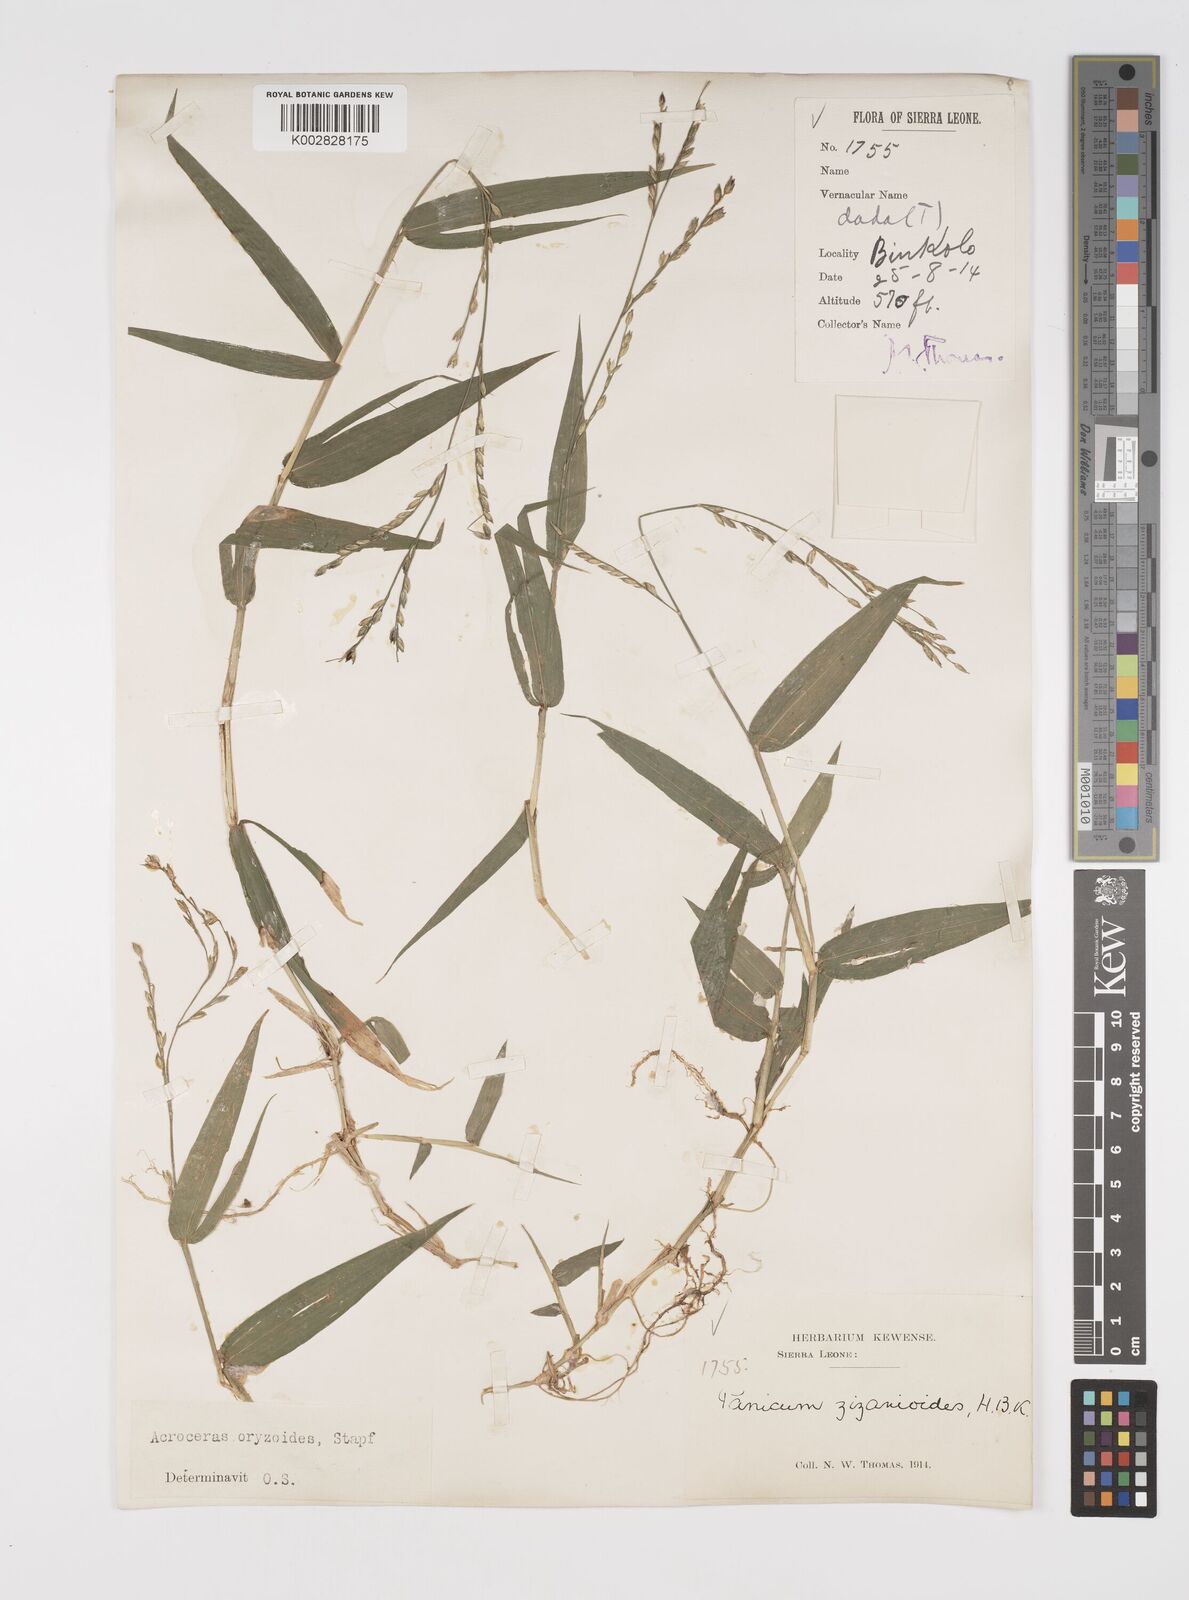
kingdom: Plantae
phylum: Tracheophyta
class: Liliopsida
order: Poales
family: Poaceae
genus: Acroceras
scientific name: Acroceras zizanioides
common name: Oat grass
